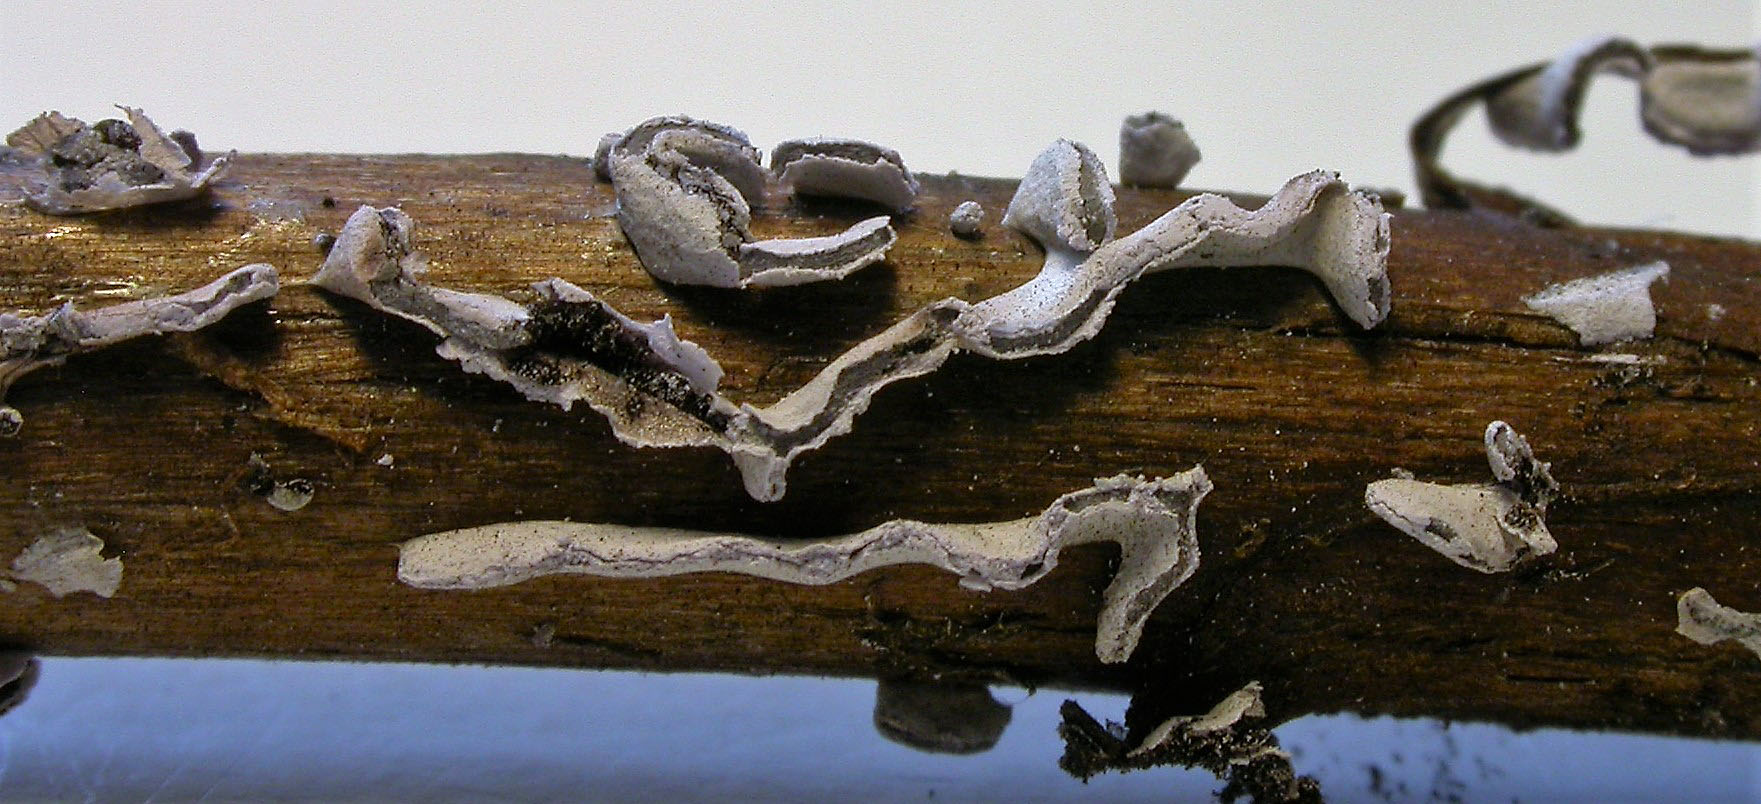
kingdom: Protozoa
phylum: Mycetozoa
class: Myxomycetes
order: Physarales
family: Physaraceae
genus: Physarum
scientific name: Physarum bivalve
